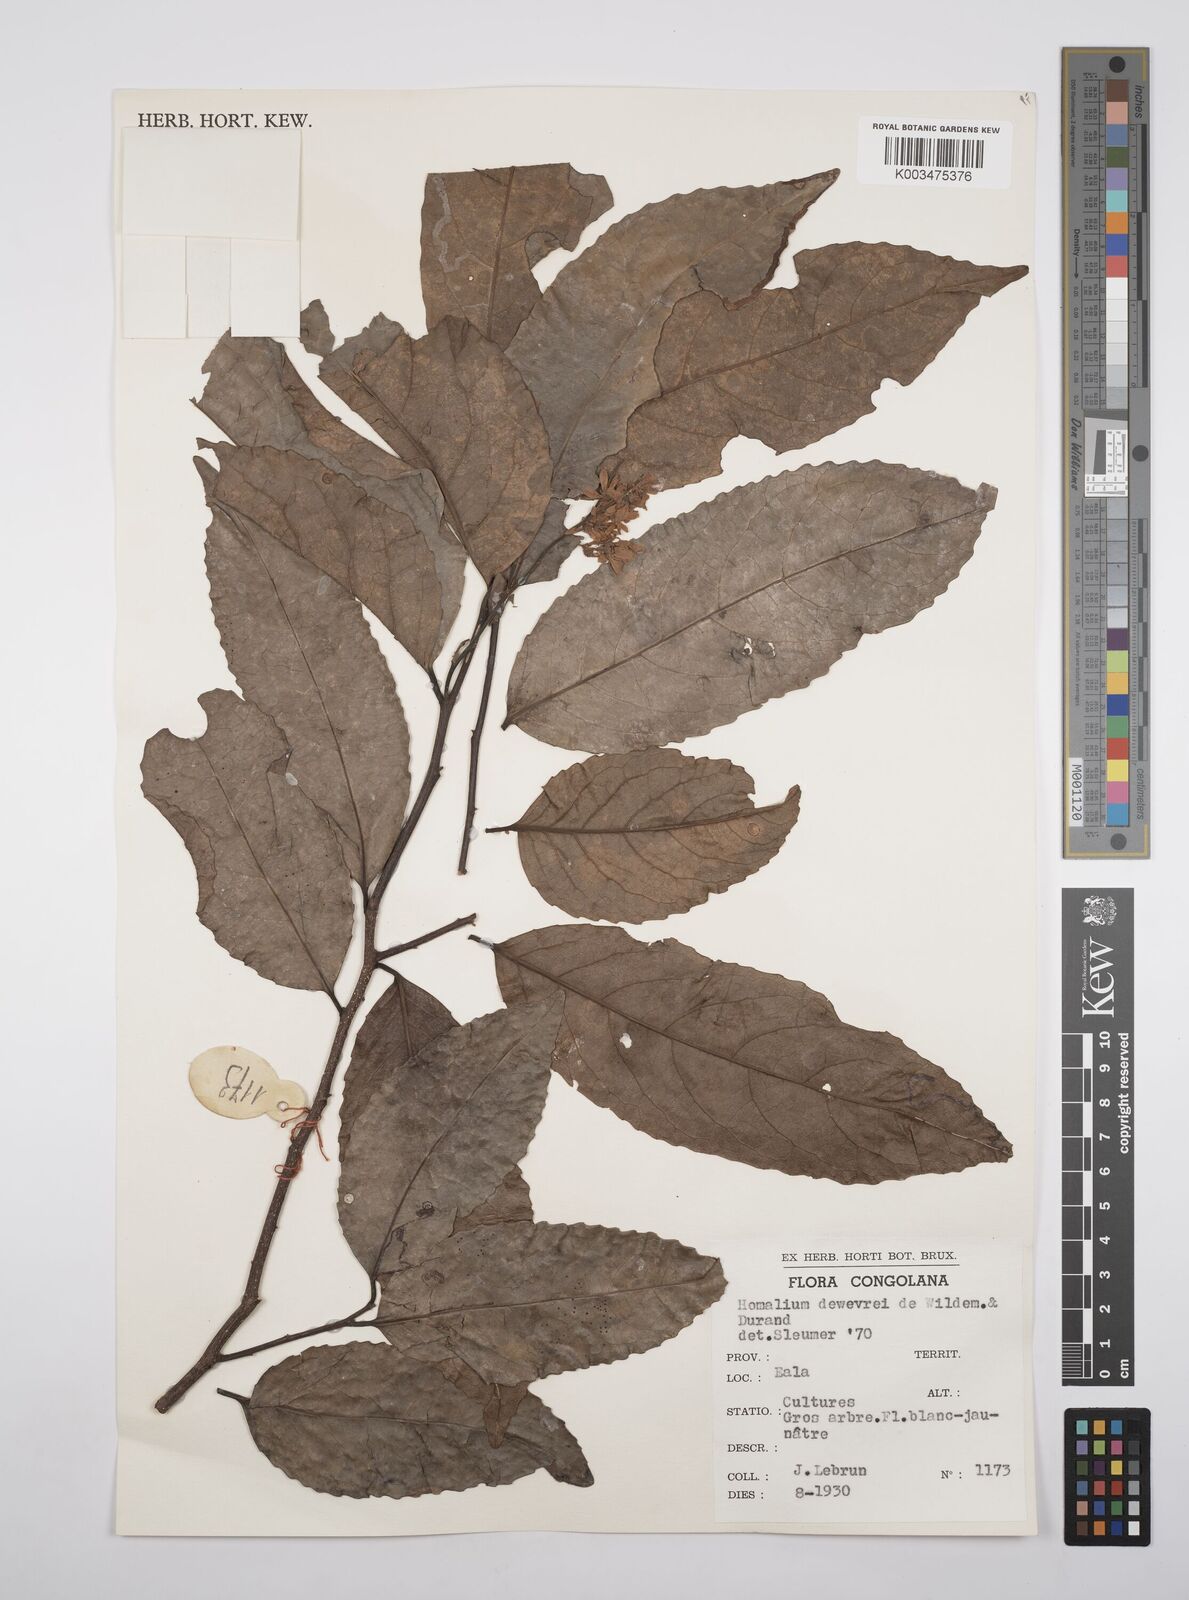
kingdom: Plantae
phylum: Tracheophyta
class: Magnoliopsida
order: Malpighiales
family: Salicaceae
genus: Homalium
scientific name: Homalium dewevrei
